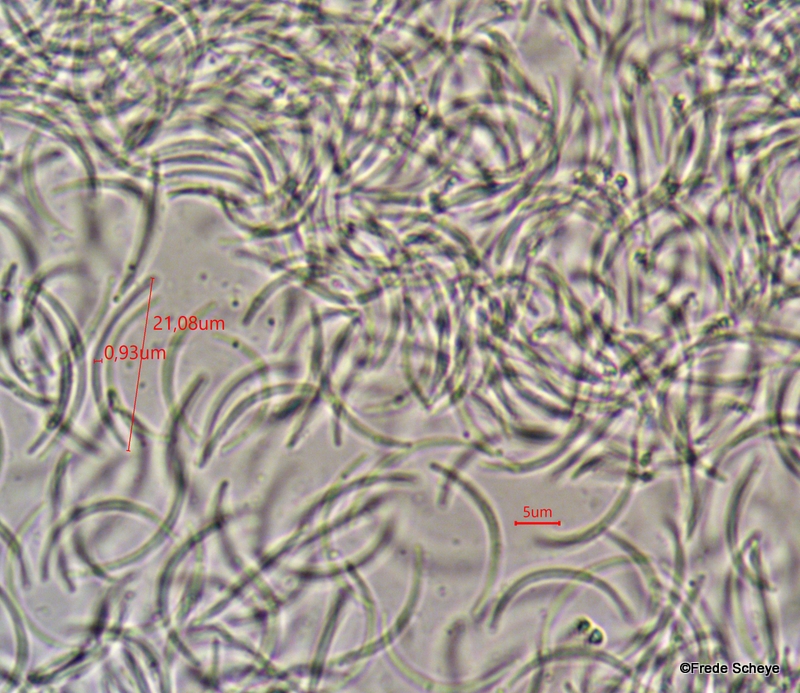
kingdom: Fungi
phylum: Ascomycota
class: Sordariomycetes
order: Xylariales
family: Diatrypaceae
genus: Eutypella
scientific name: Eutypella quaternata
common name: bøge-korsprik
